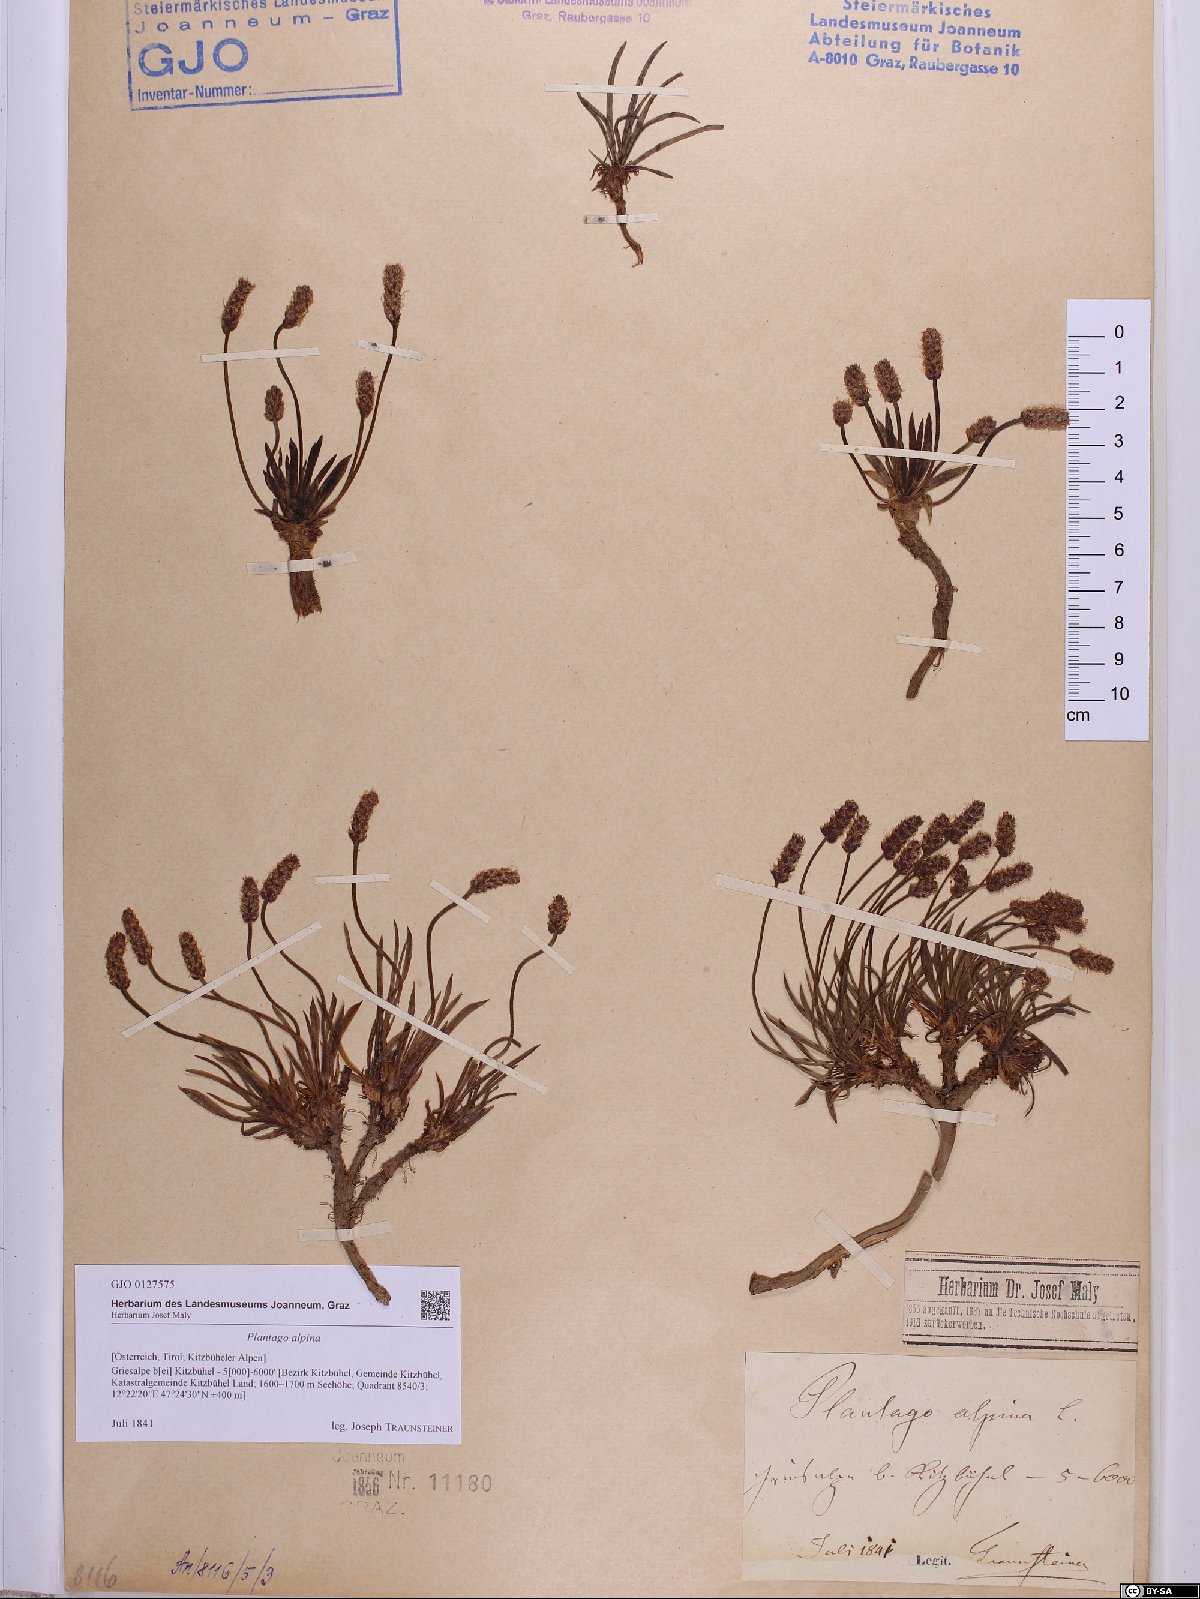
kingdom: Plantae
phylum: Tracheophyta
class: Magnoliopsida
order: Lamiales
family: Plantaginaceae
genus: Plantago
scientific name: Plantago alpina
